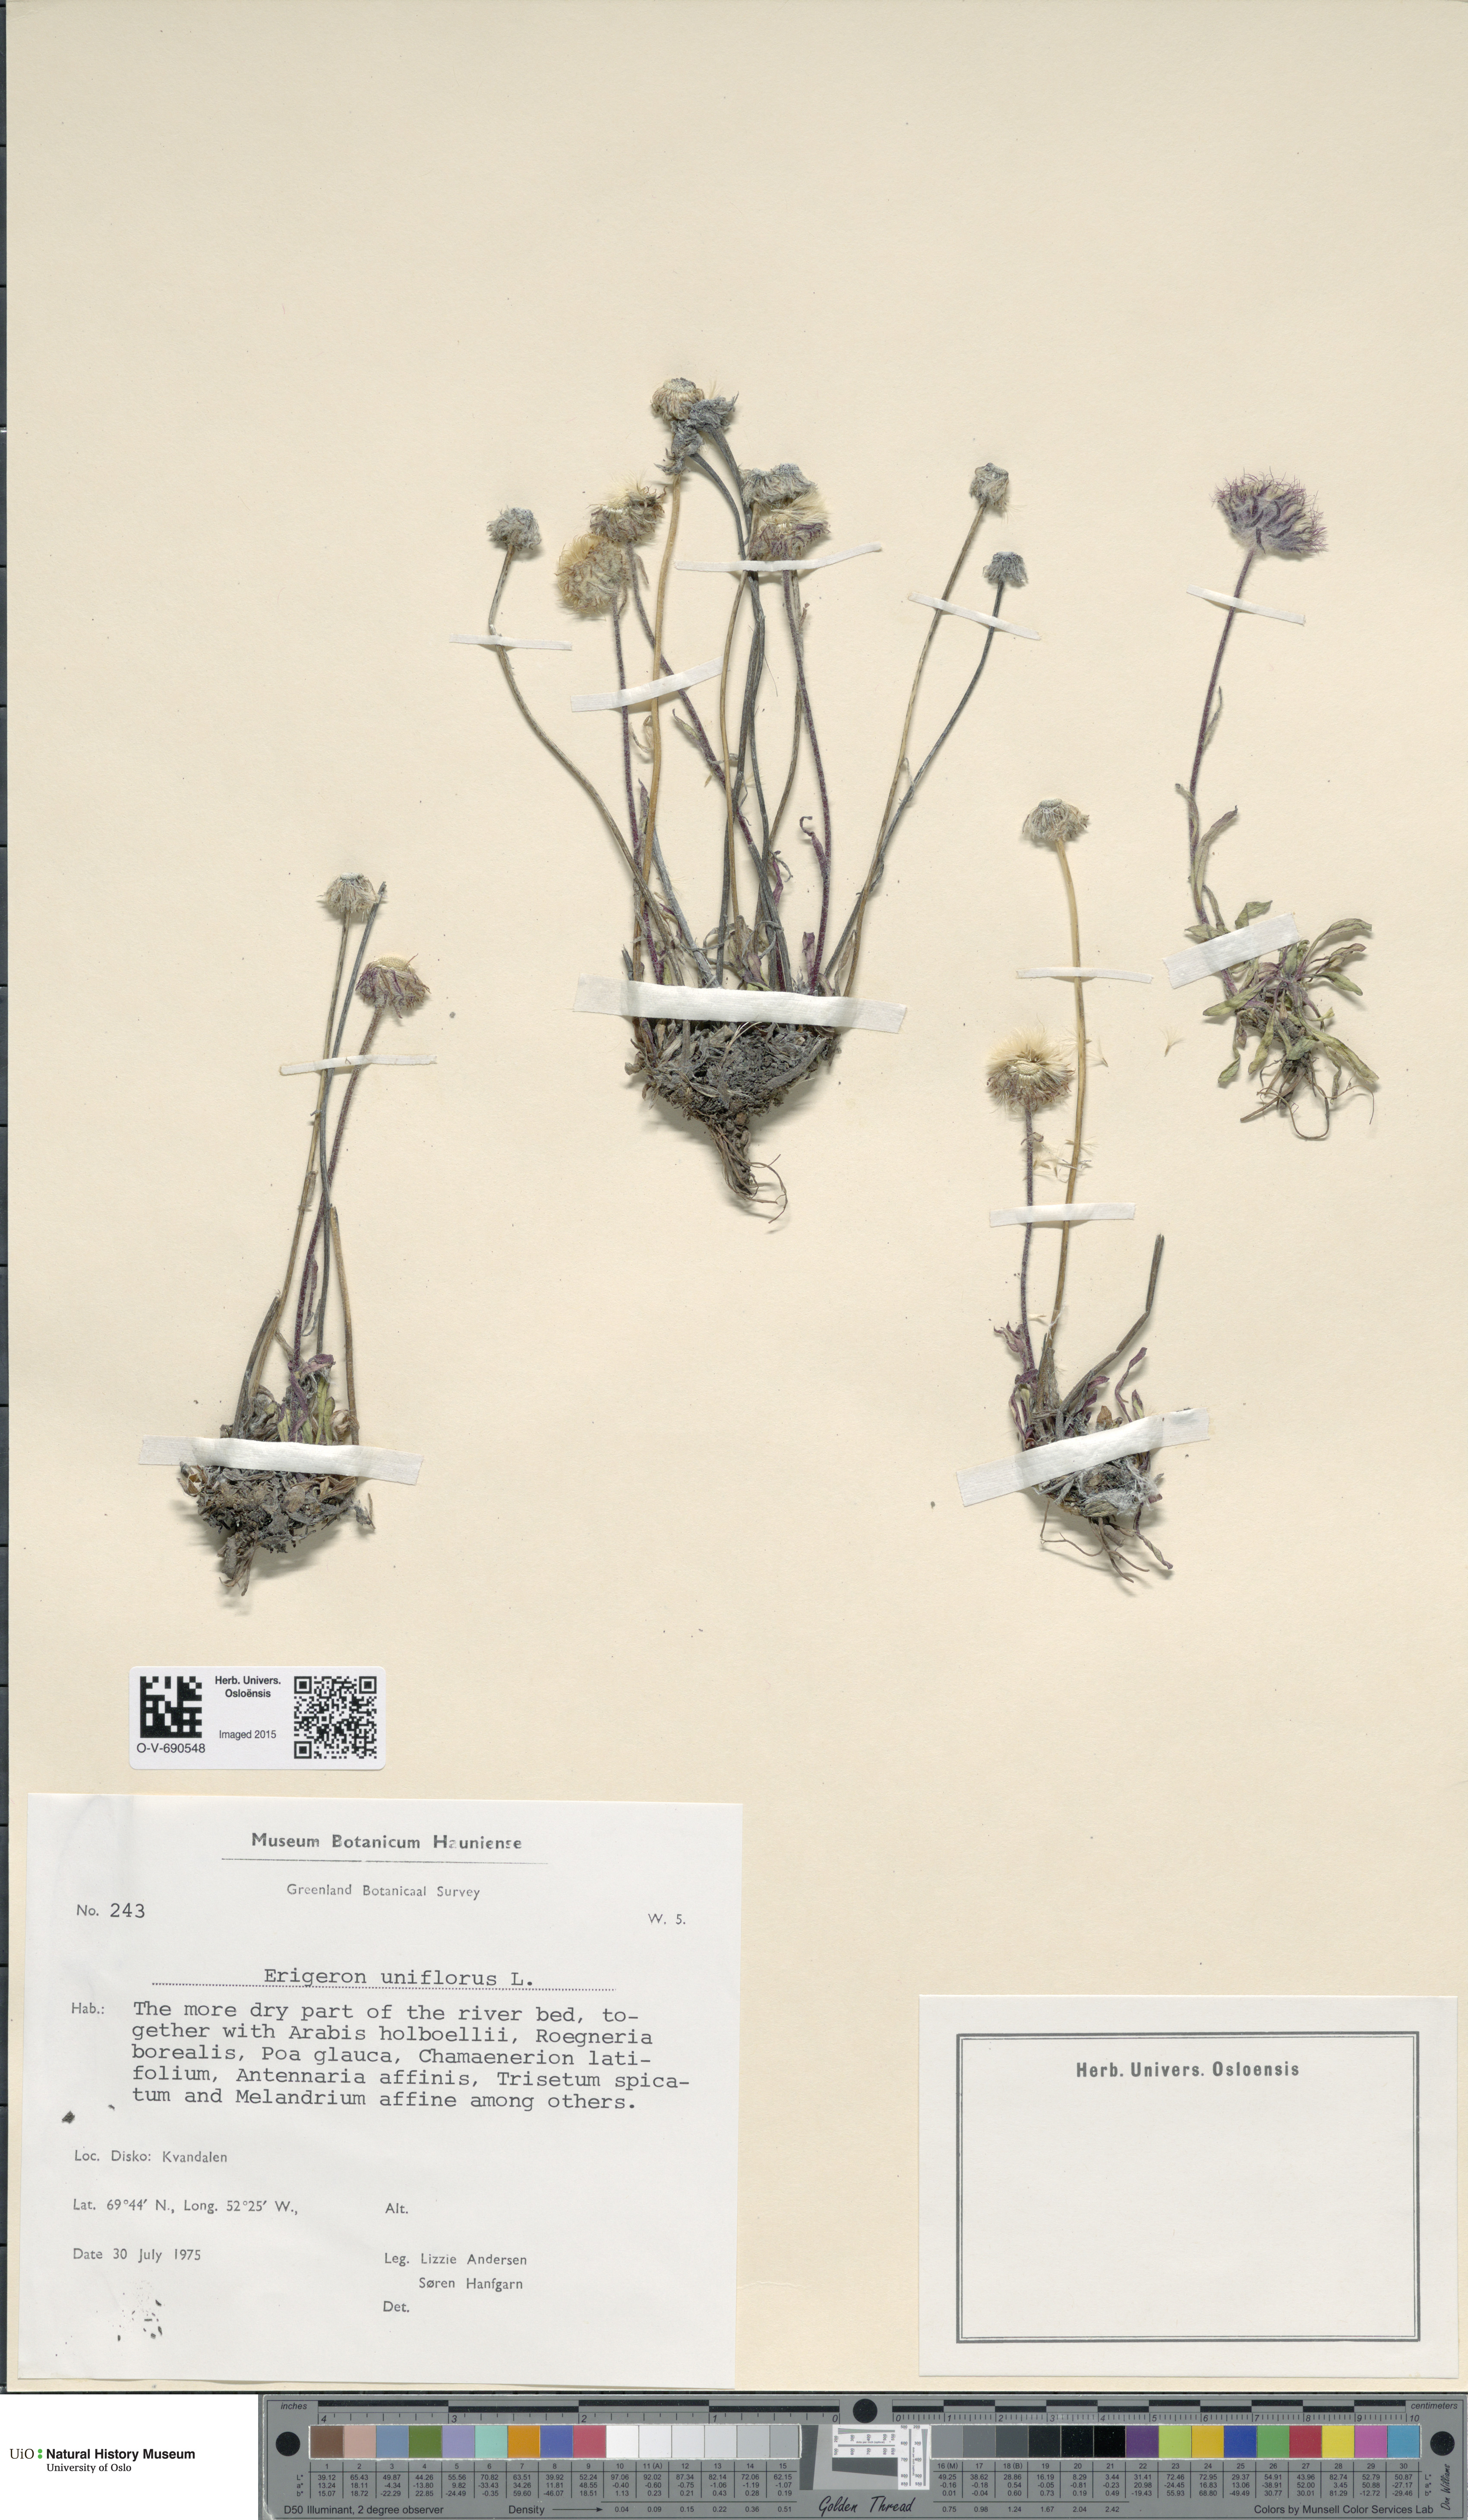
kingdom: Plantae
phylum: Tracheophyta
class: Magnoliopsida
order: Asterales
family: Asteraceae
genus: Erigeron
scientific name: Erigeron uniflorus
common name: Northern daisy
